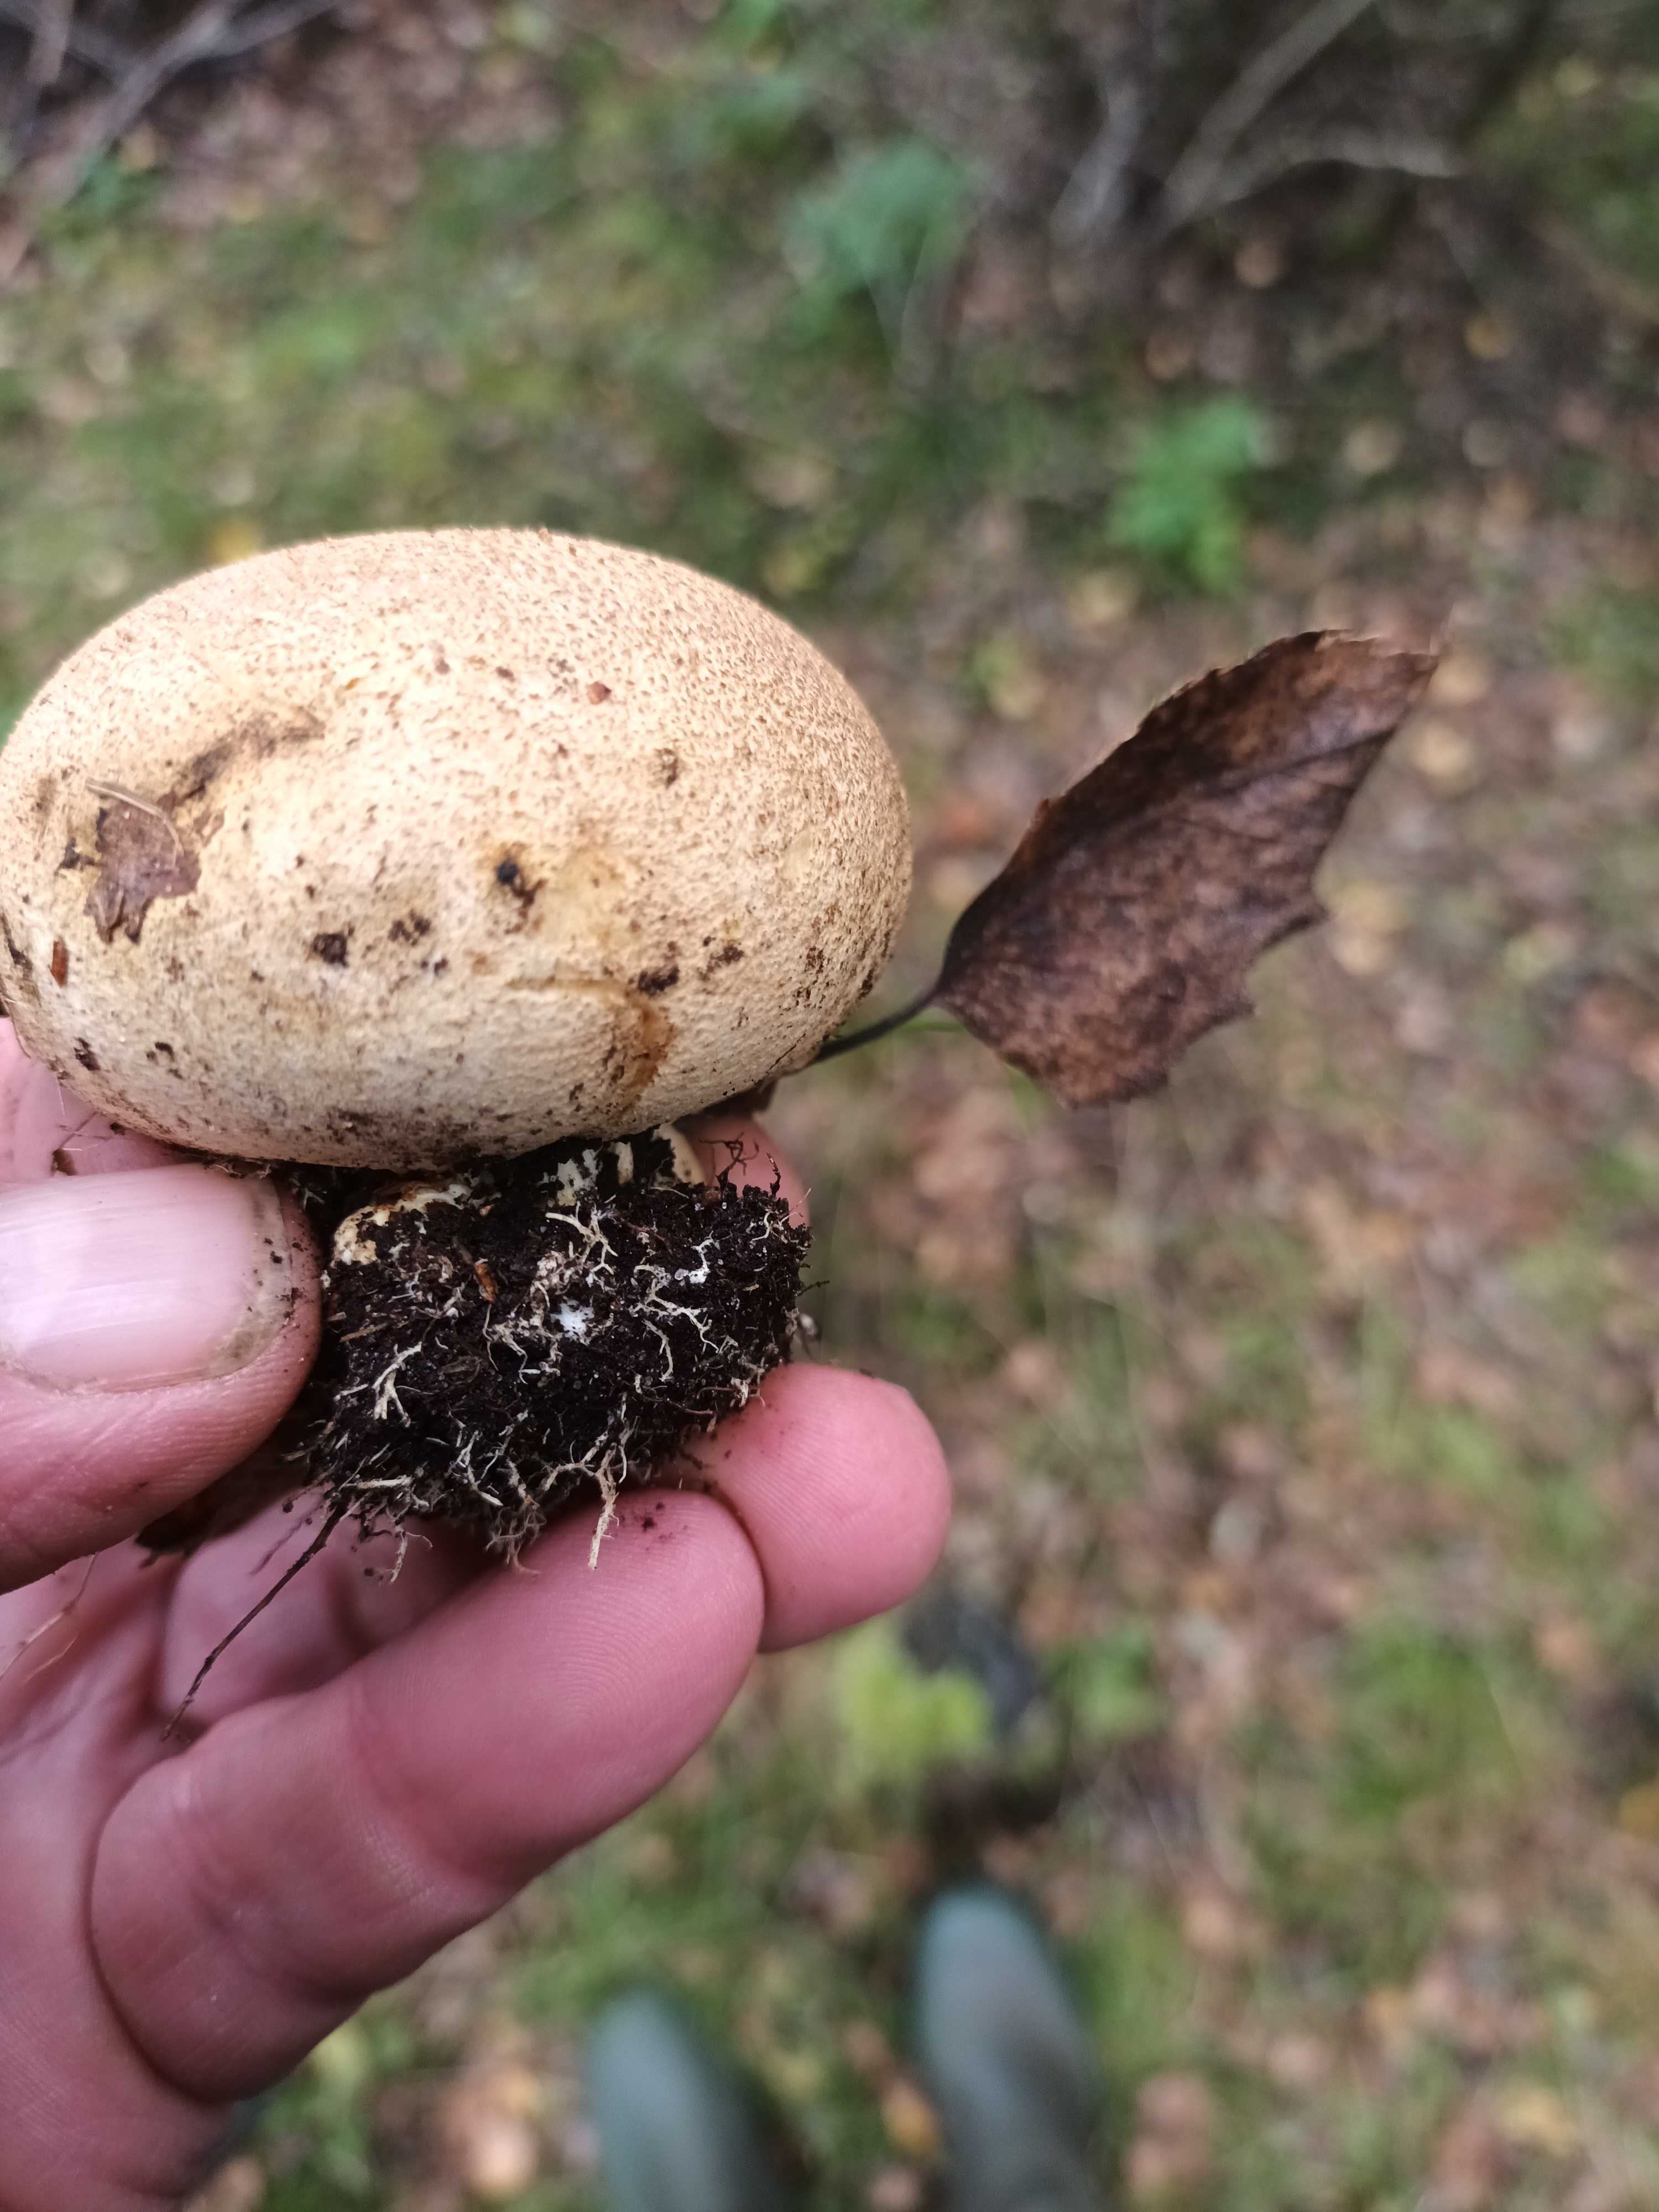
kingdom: Fungi
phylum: Basidiomycota
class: Agaricomycetes
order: Boletales
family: Sclerodermataceae
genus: Scleroderma
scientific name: Scleroderma citrinum
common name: almindelig bruskbold
